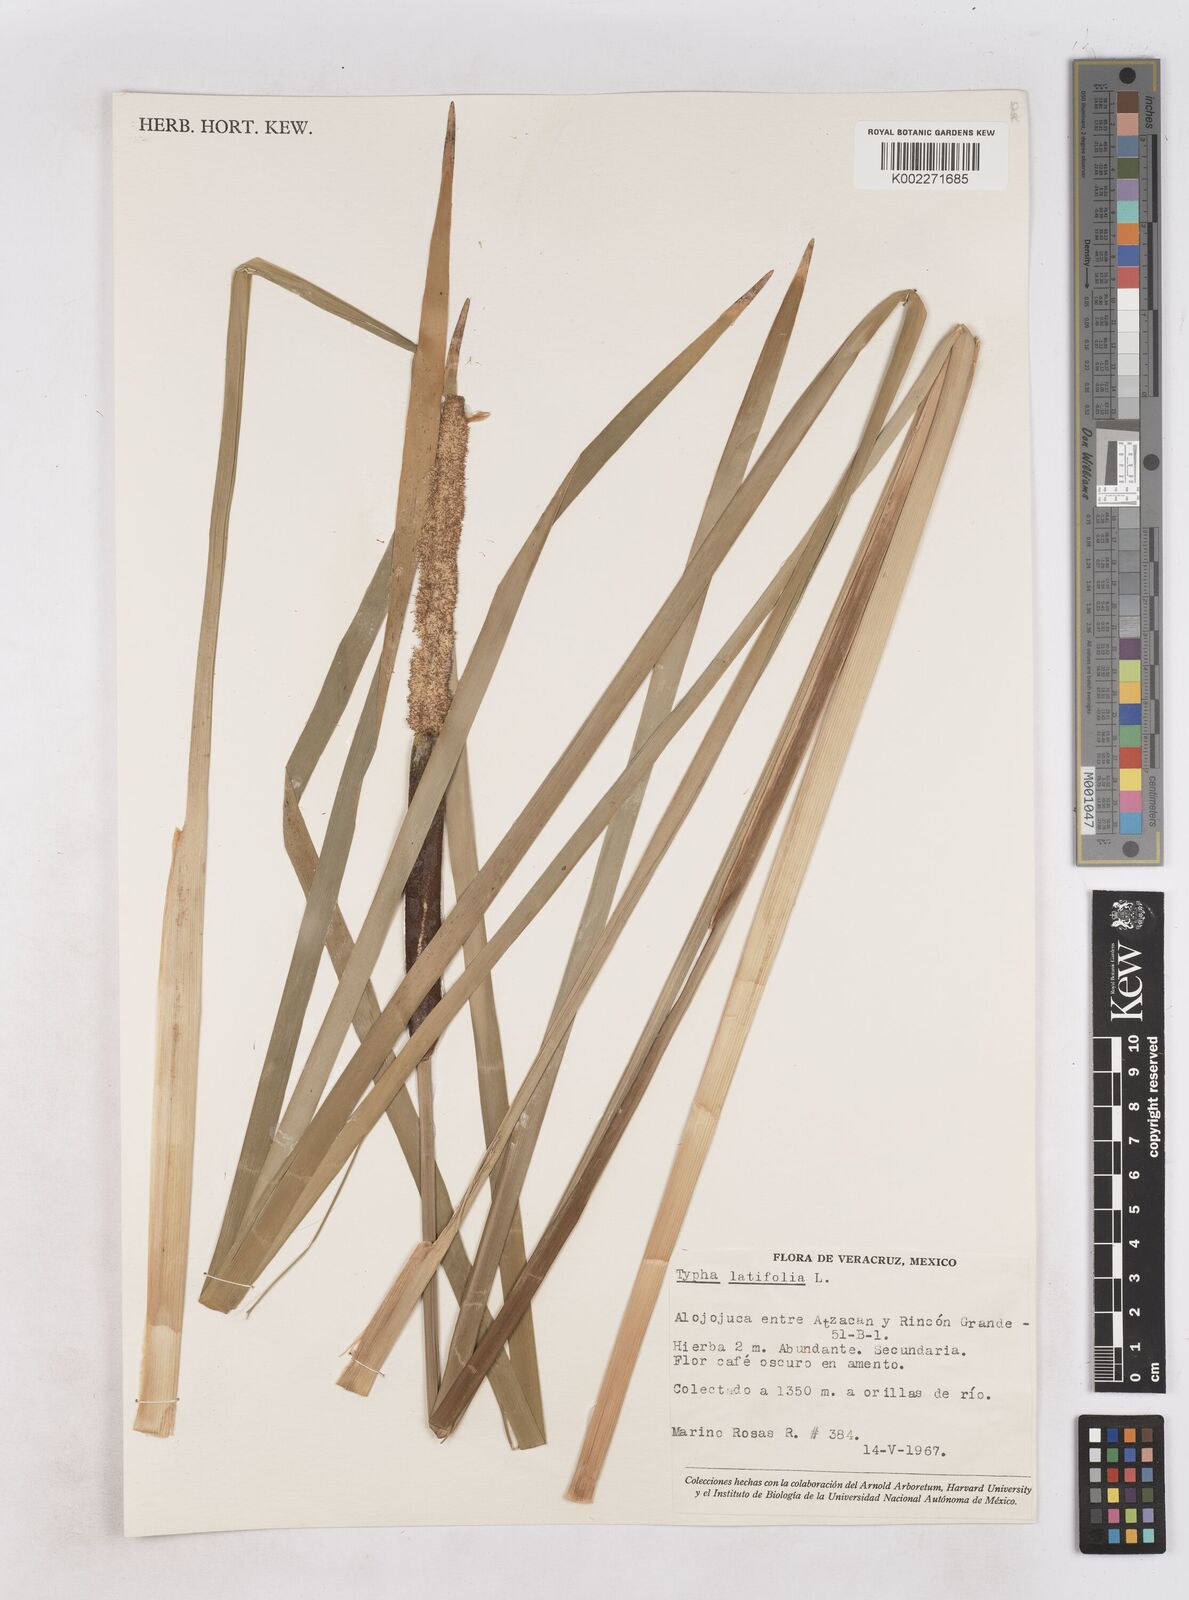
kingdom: Plantae
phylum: Tracheophyta
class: Liliopsida
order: Poales
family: Typhaceae
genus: Typha
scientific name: Typha latifolia
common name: Broadleaf cattail
